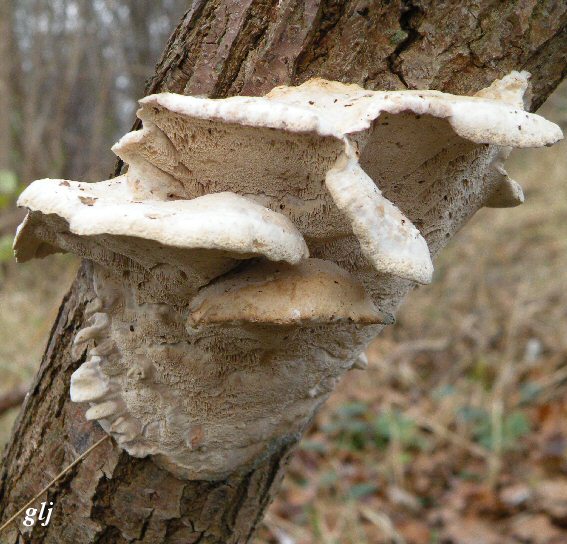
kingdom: Fungi
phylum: Basidiomycota
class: Agaricomycetes
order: Polyporales
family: Phanerochaetaceae
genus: Bjerkandera
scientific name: Bjerkandera fumosa
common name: grågul sodporesvamp
